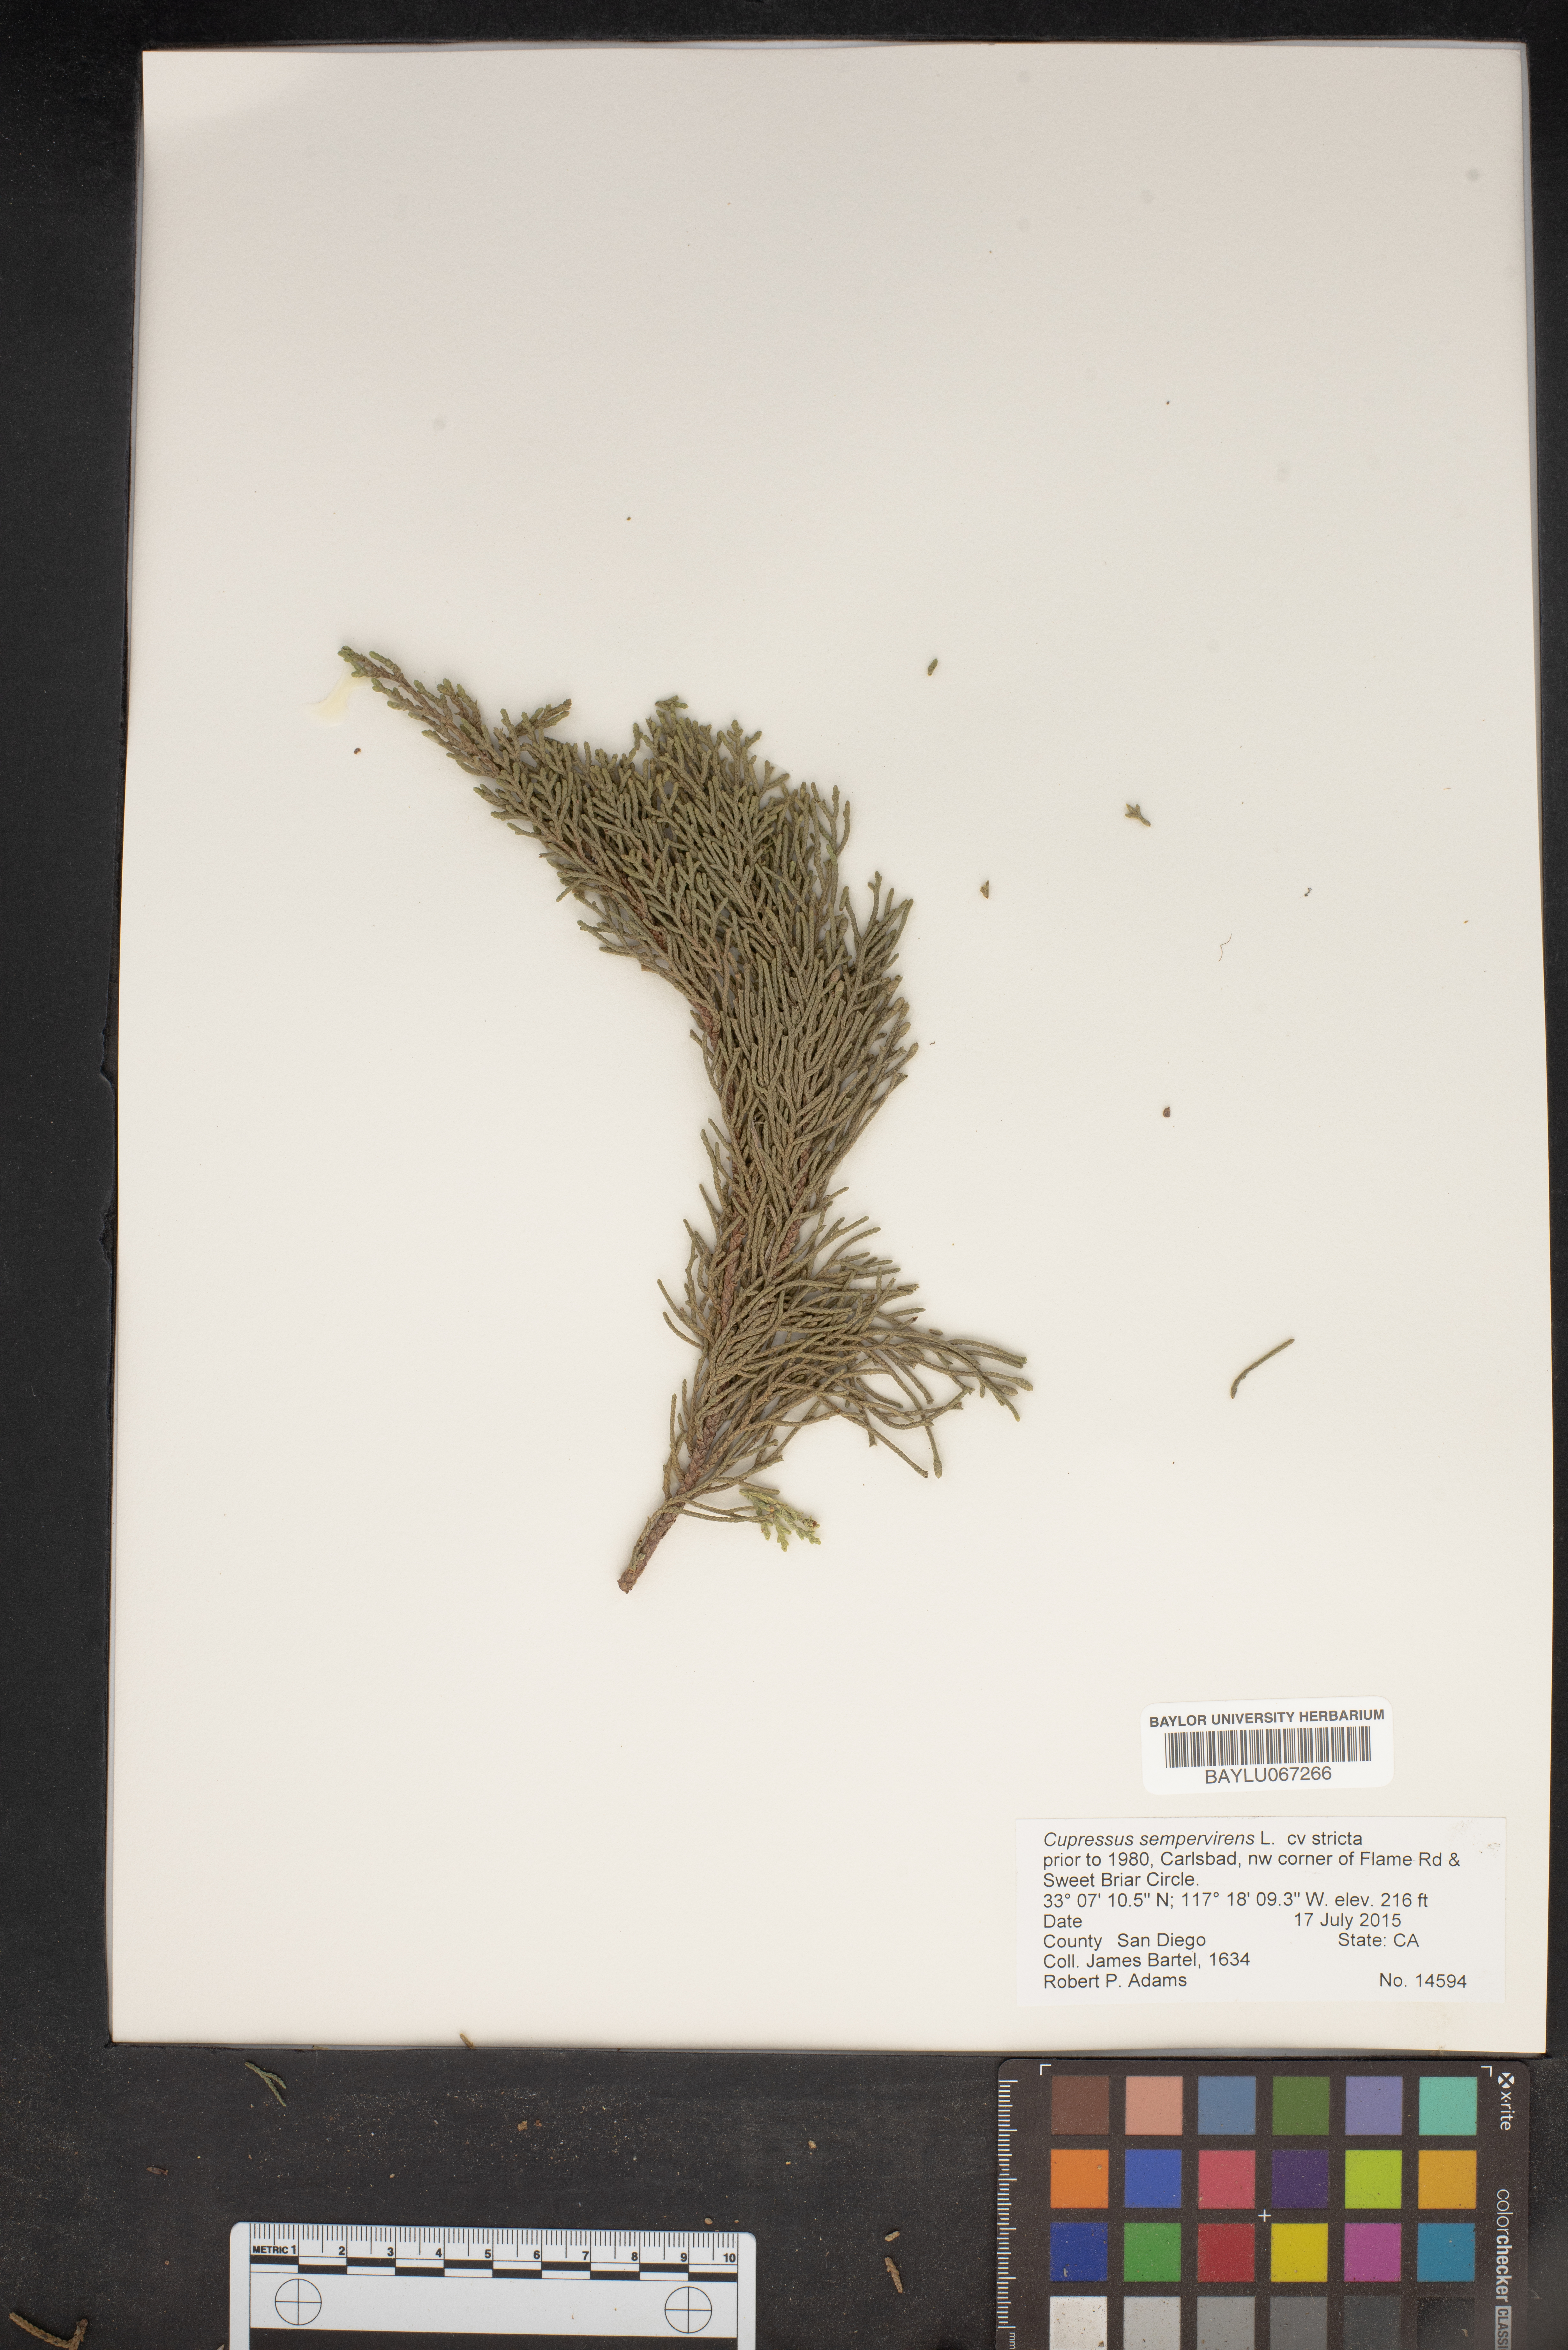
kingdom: Plantae
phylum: Tracheophyta
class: Pinopsida
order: Pinales
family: Cupressaceae
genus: Cupressus
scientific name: Cupressus sempervirens
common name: Italian cypress
